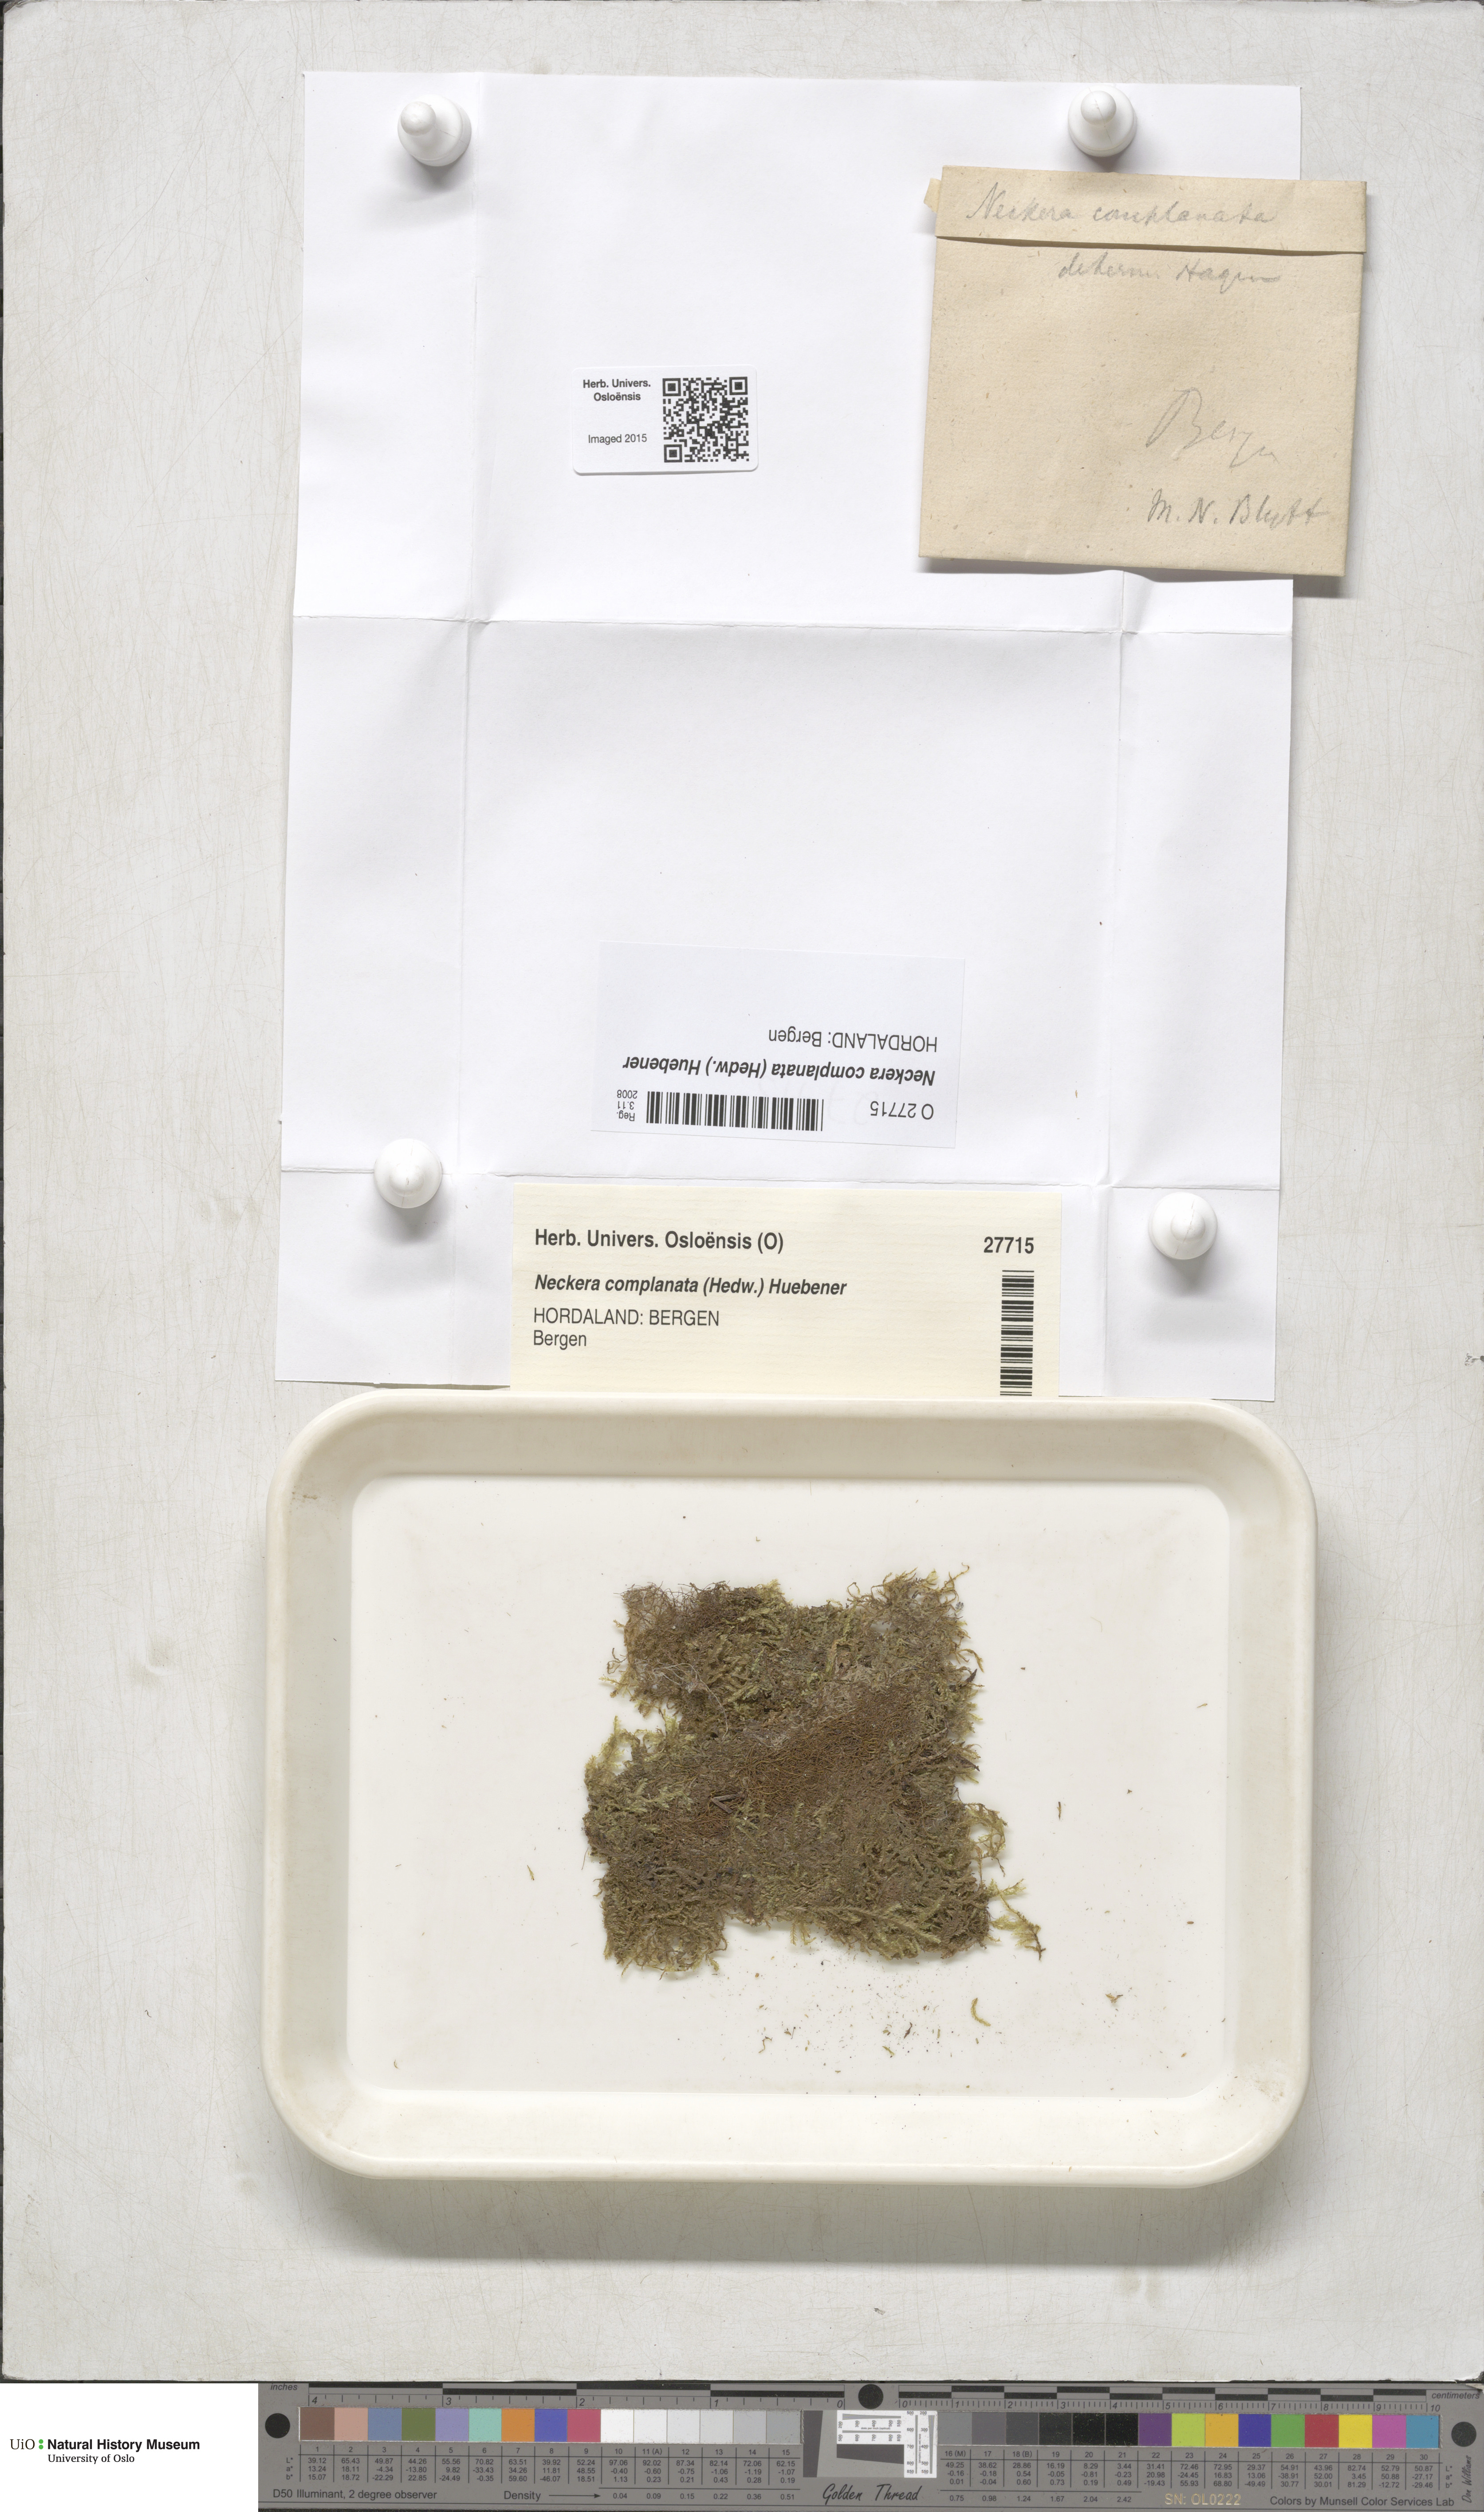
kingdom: Plantae
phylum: Bryophyta
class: Bryopsida
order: Hypnales
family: Neckeraceae
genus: Alleniella
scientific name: Alleniella complanata
